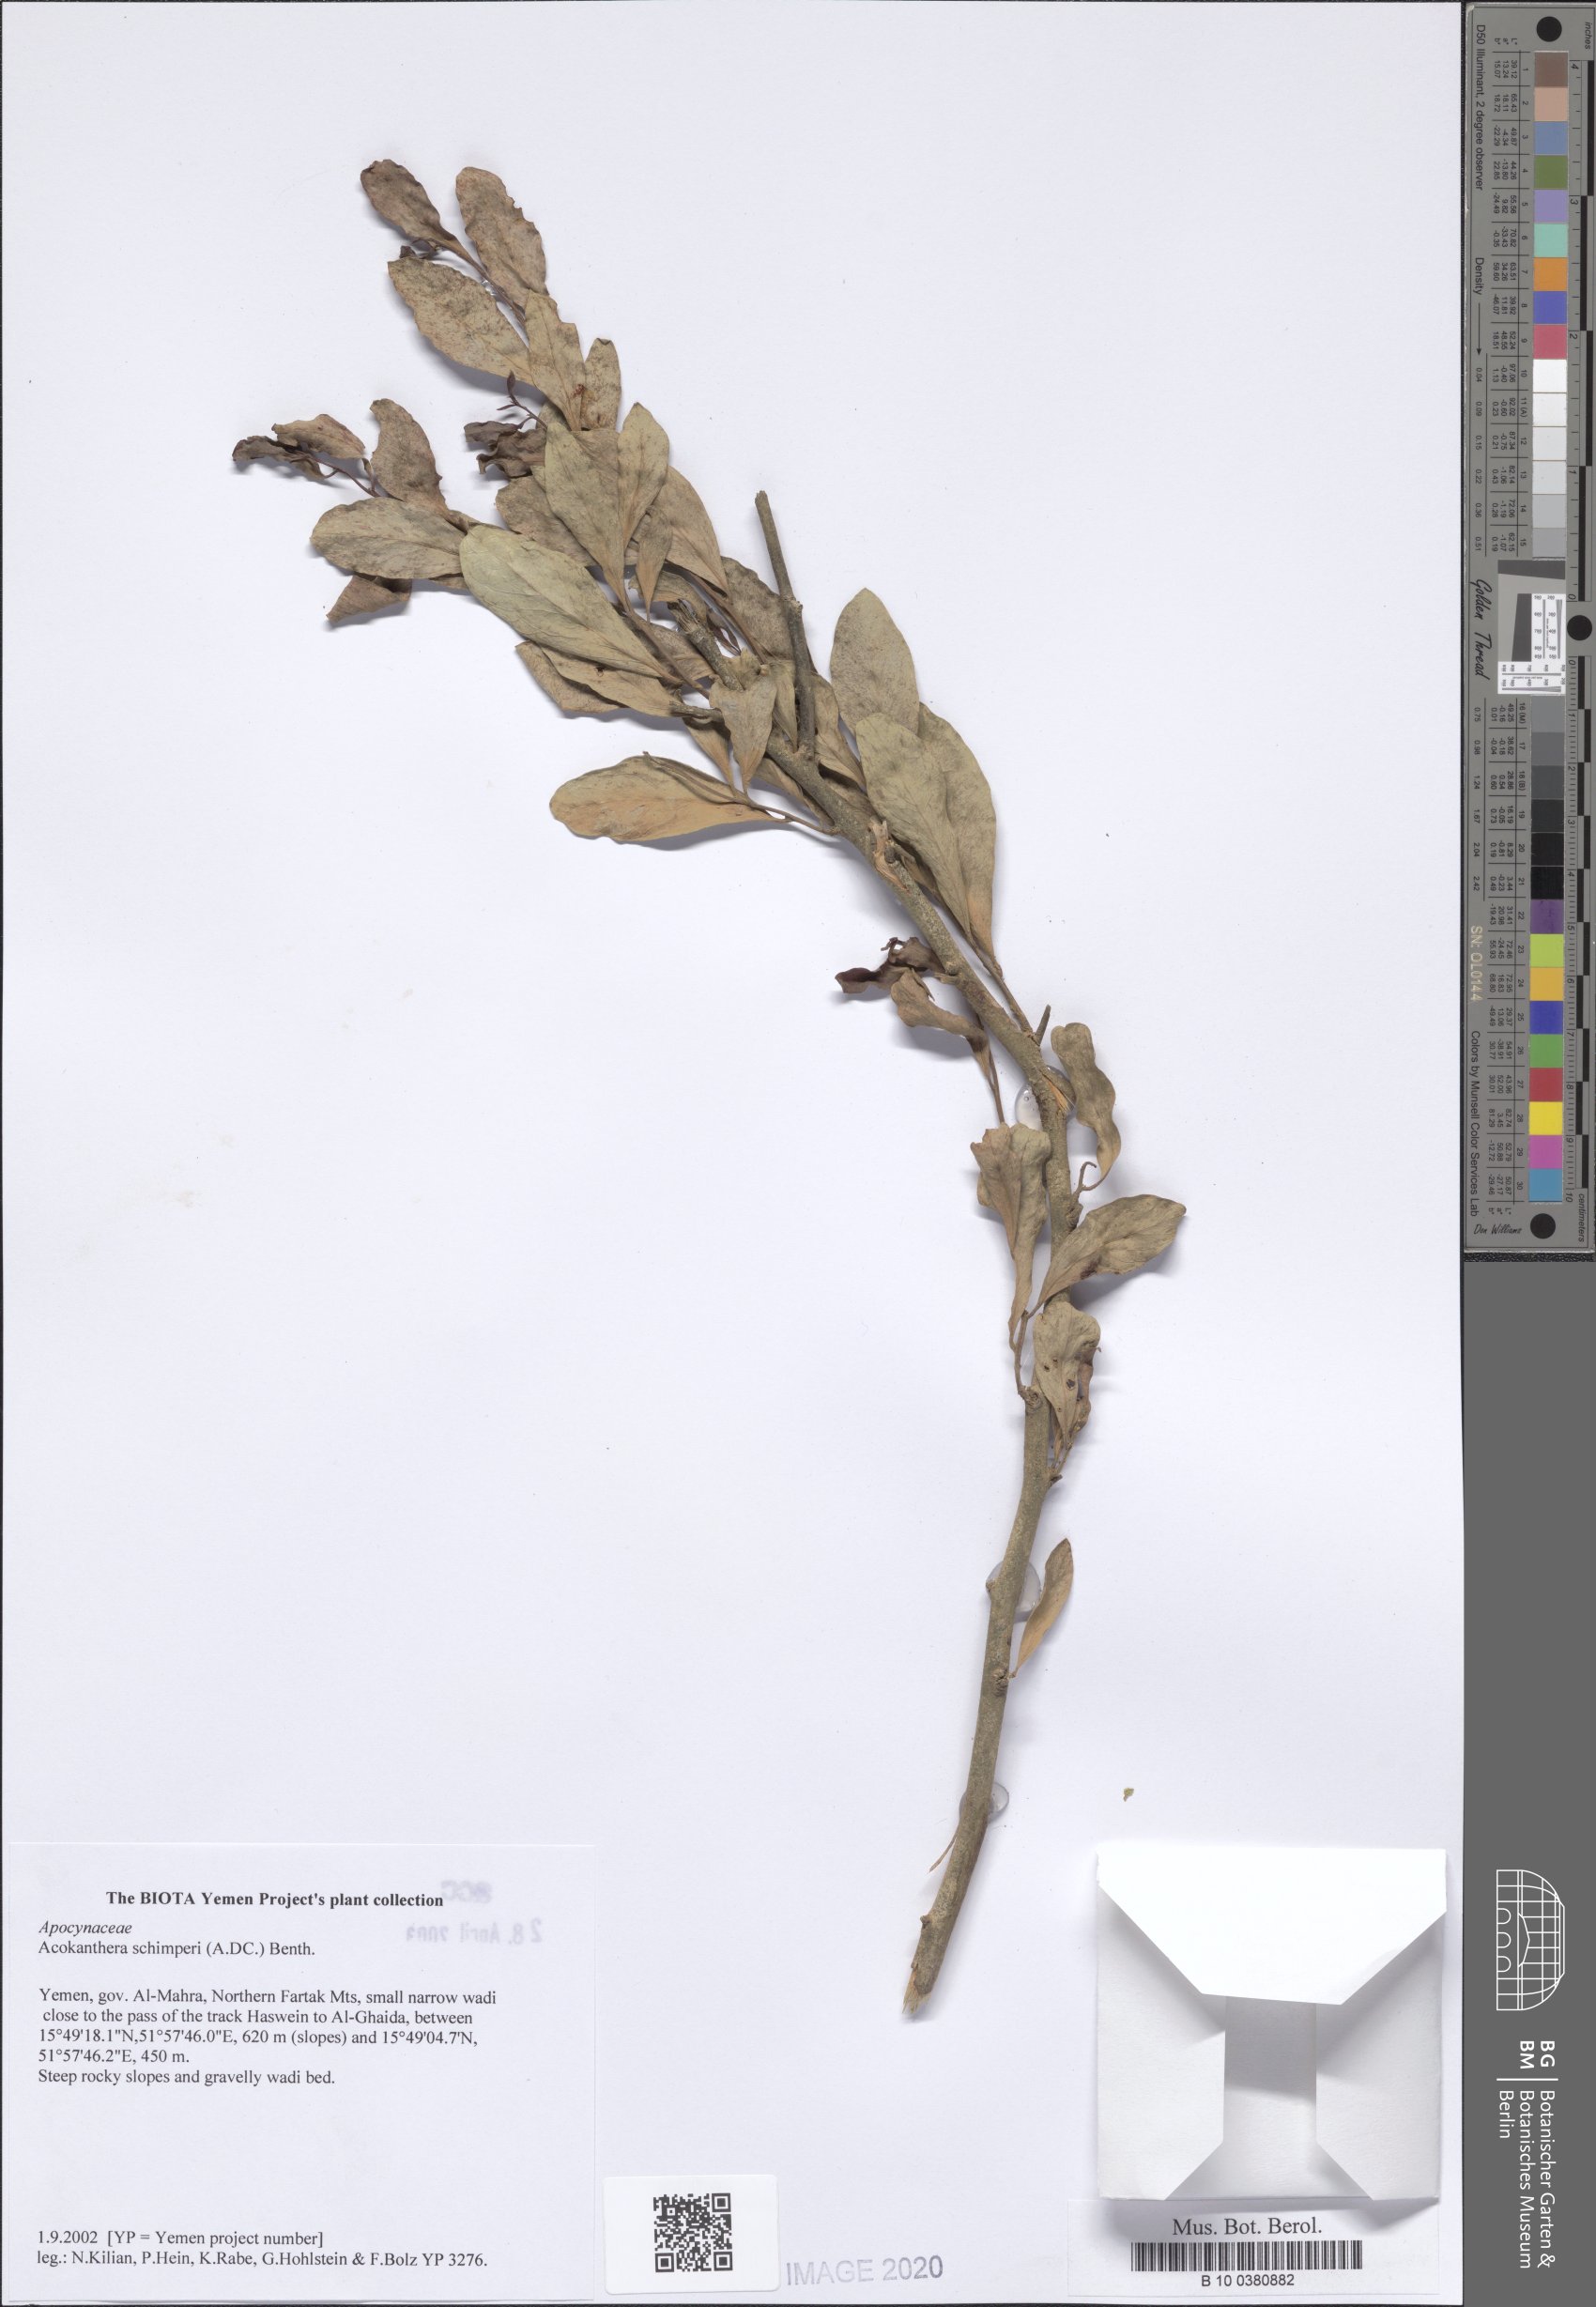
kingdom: Plantae
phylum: Tracheophyta
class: Magnoliopsida
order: Gentianales
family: Apocynaceae
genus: Acokanthera
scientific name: Acokanthera schimperi
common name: Arrow-poison-tree
